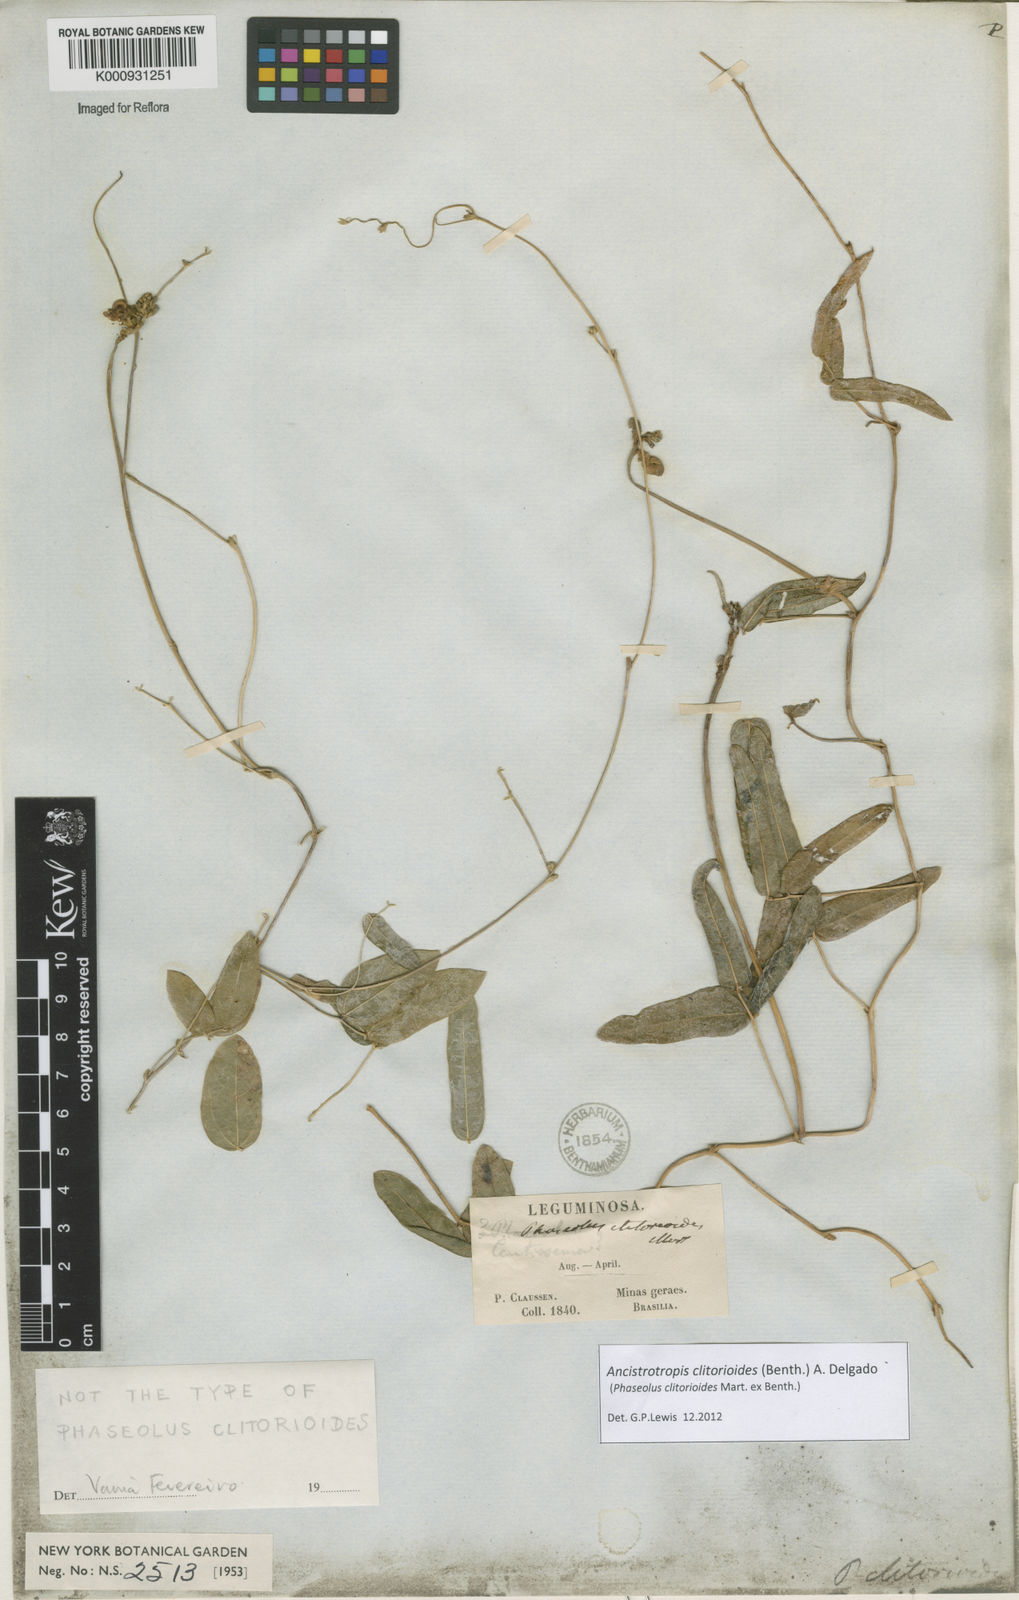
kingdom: Plantae
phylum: Tracheophyta
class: Magnoliopsida
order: Gentianales
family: Apocynaceae
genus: Dischidia
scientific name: Dischidia scortechinii
